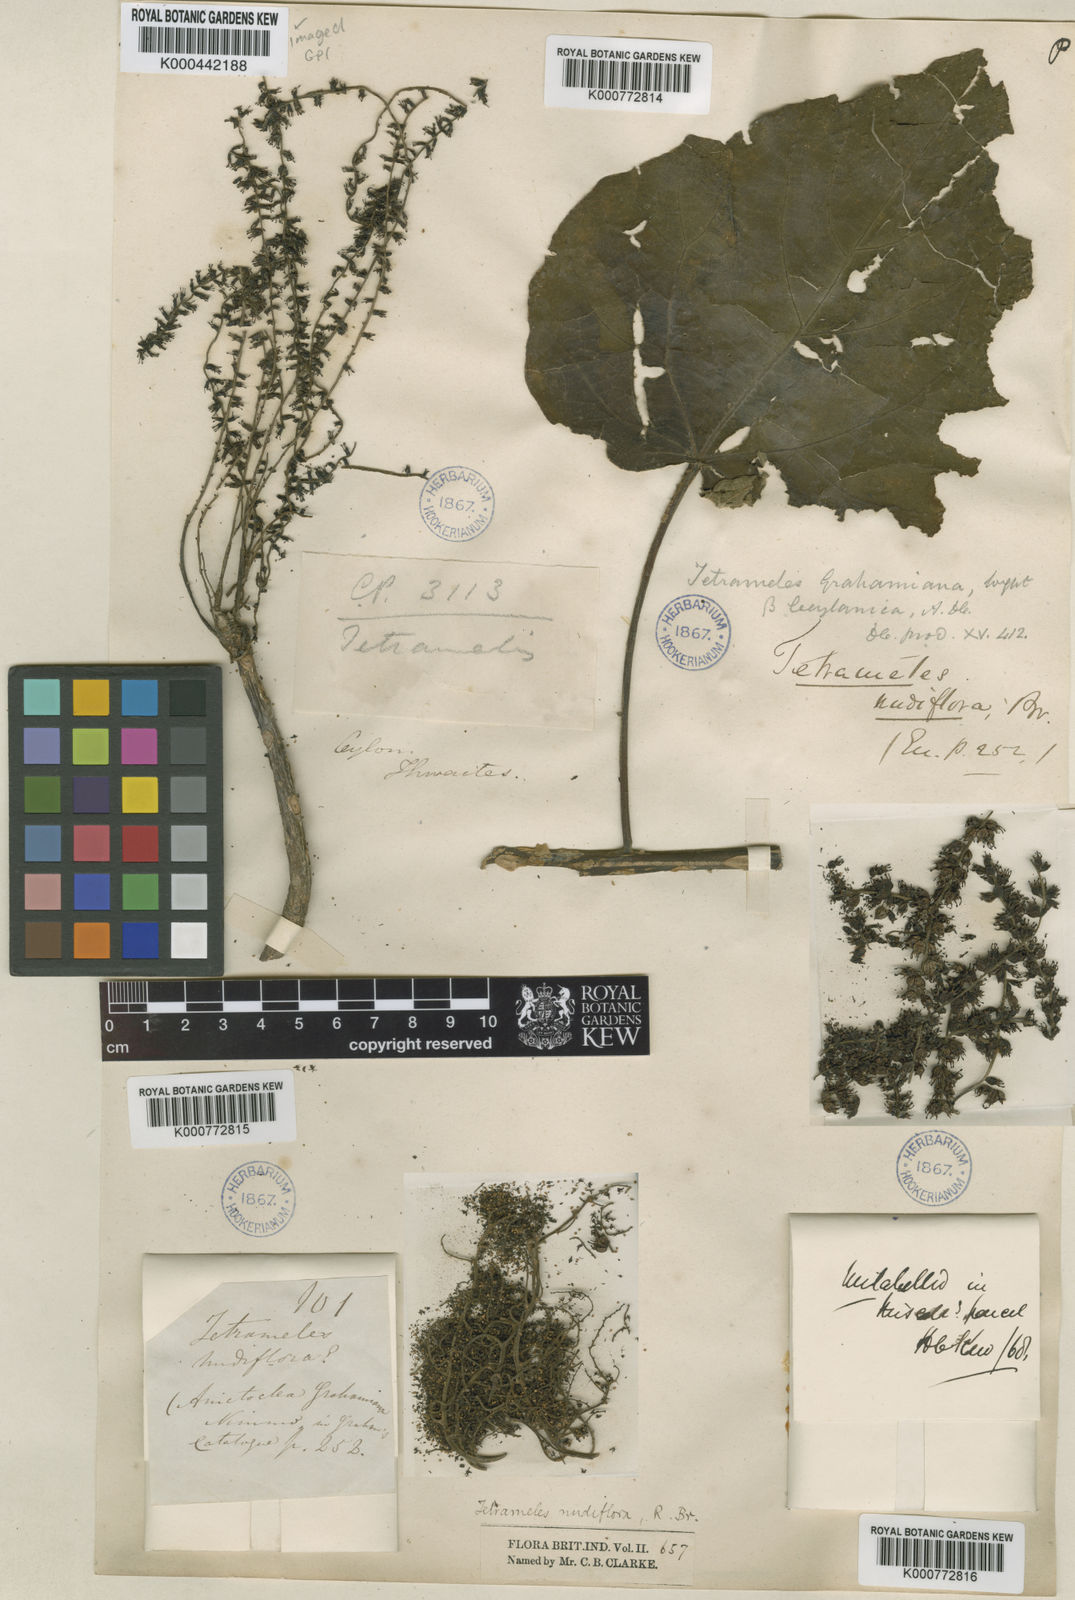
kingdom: Plantae
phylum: Tracheophyta
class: Magnoliopsida
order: Cucurbitales
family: Tetramelaceae
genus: Tetrameles
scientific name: Tetrameles nudiflora
